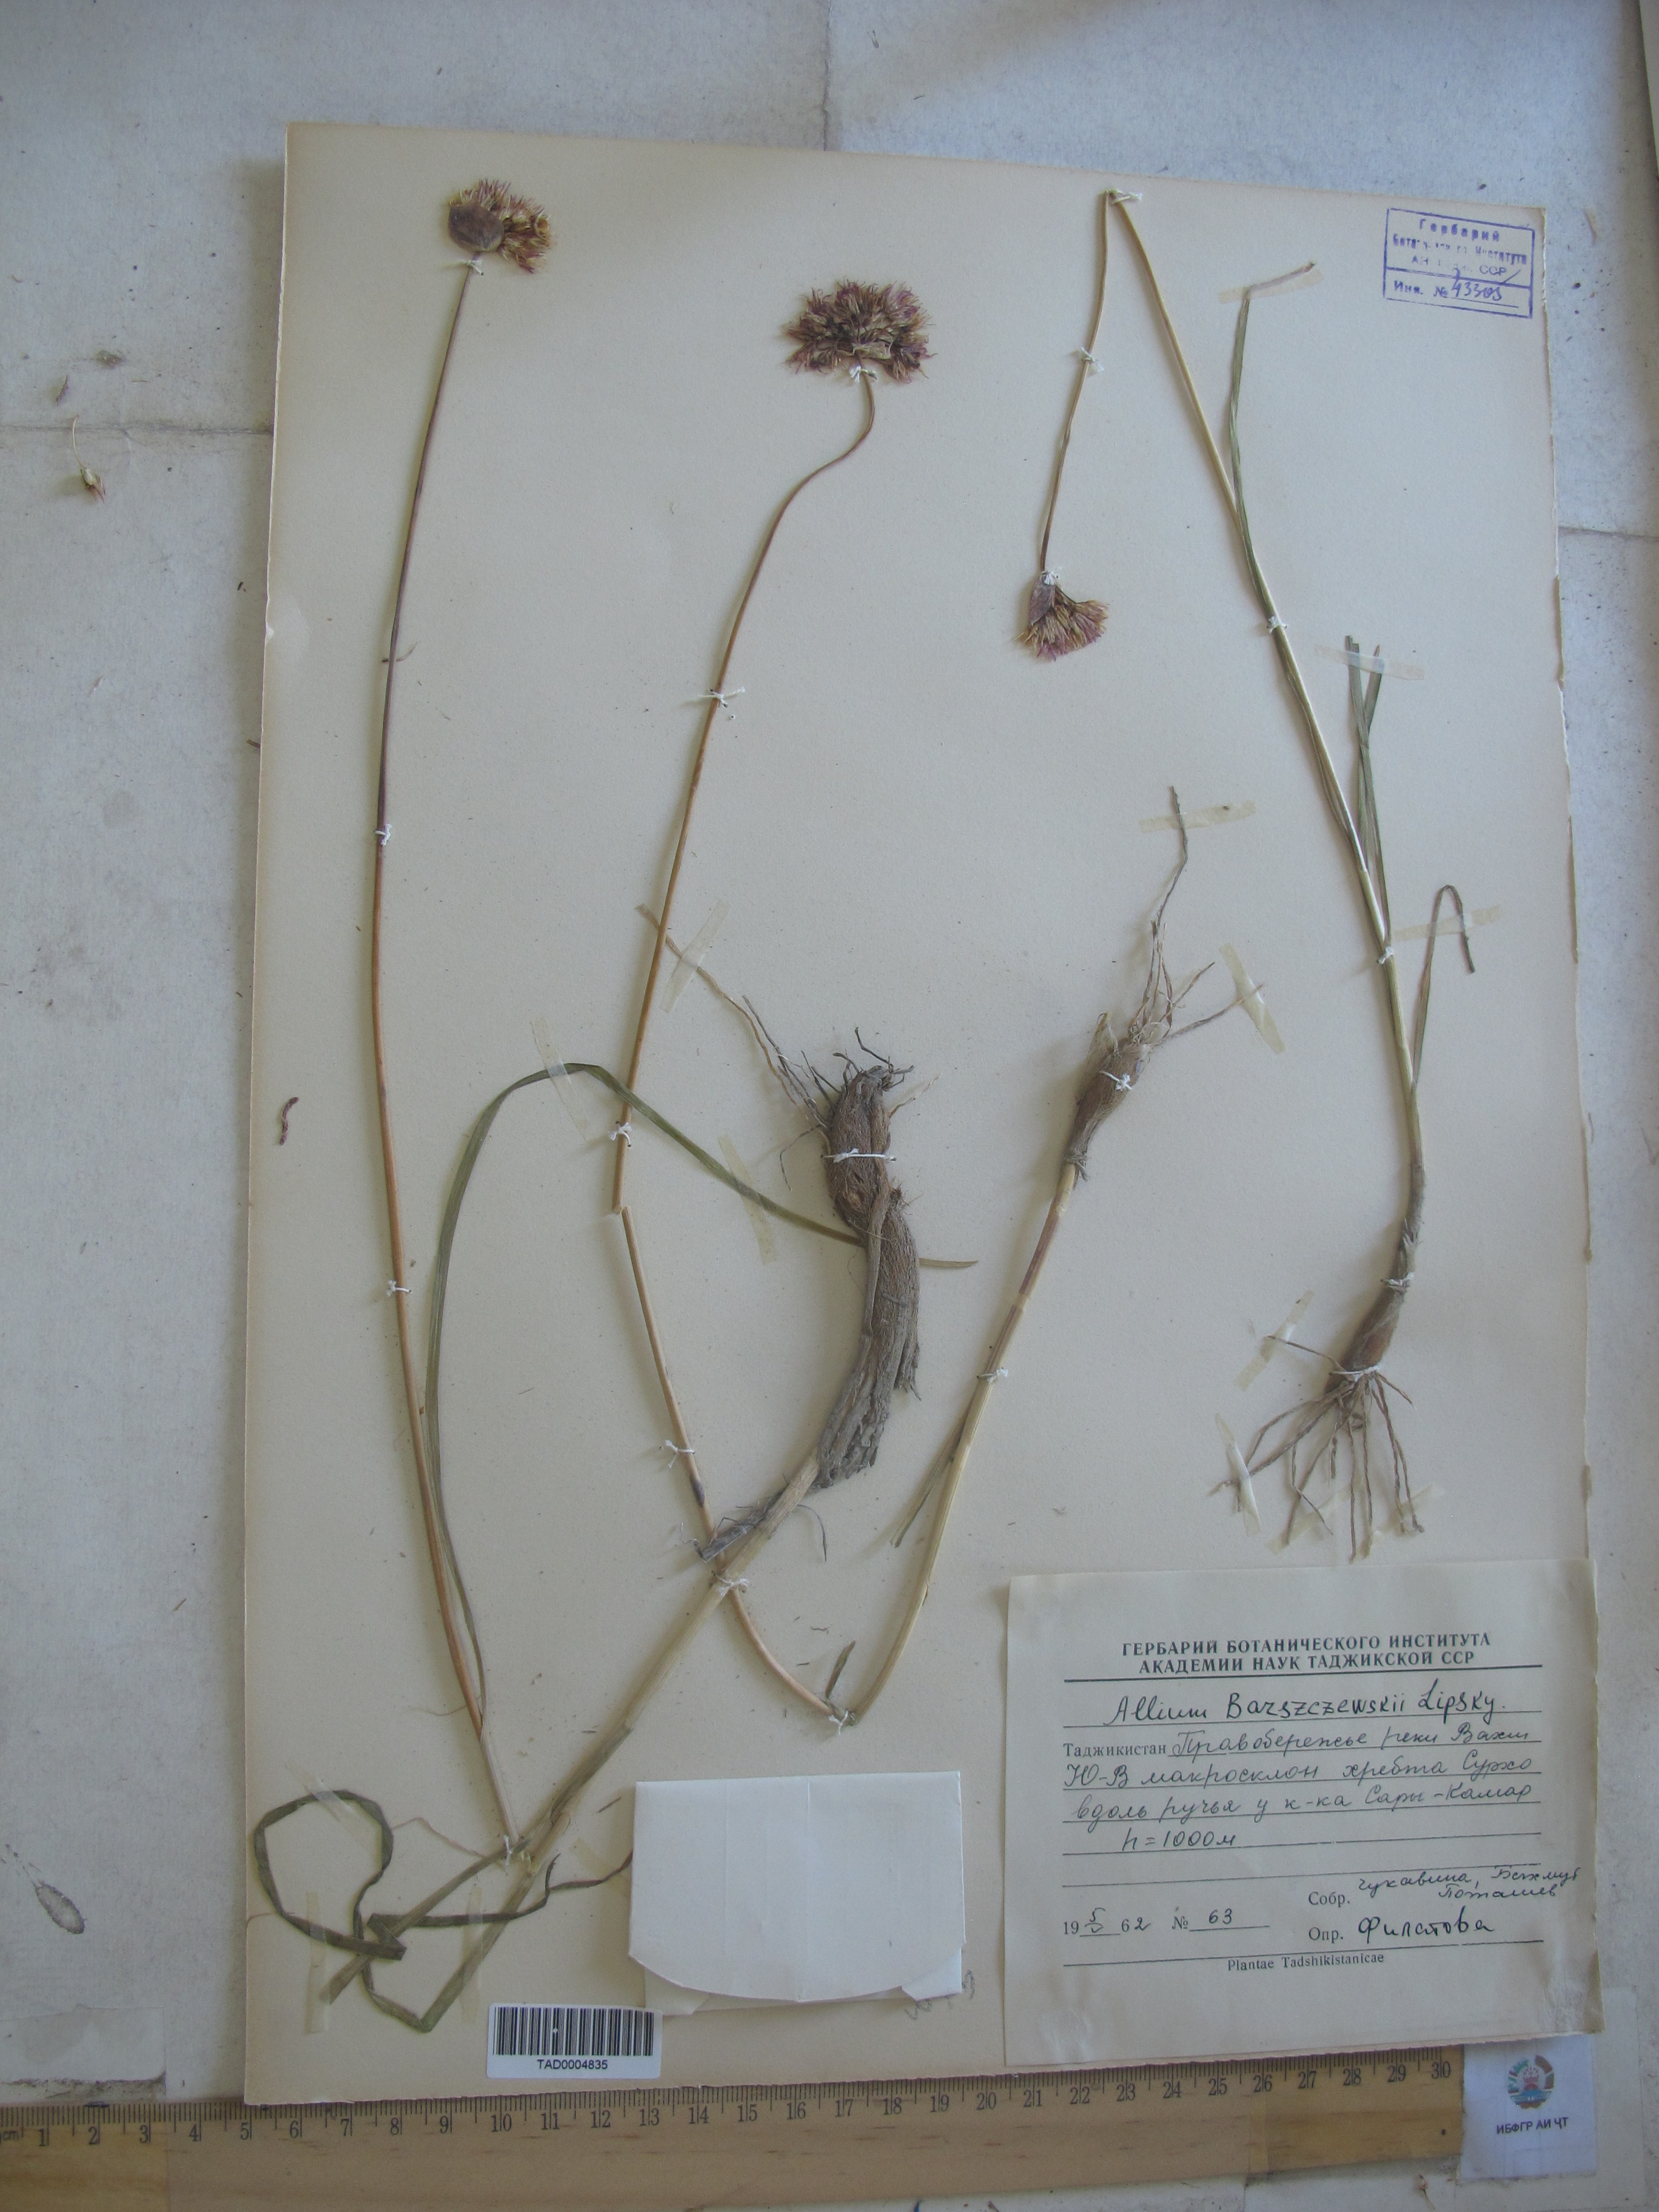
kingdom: Plantae
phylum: Tracheophyta
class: Liliopsida
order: Asparagales
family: Amaryllidaceae
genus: Allium
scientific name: Allium barsczewskii
